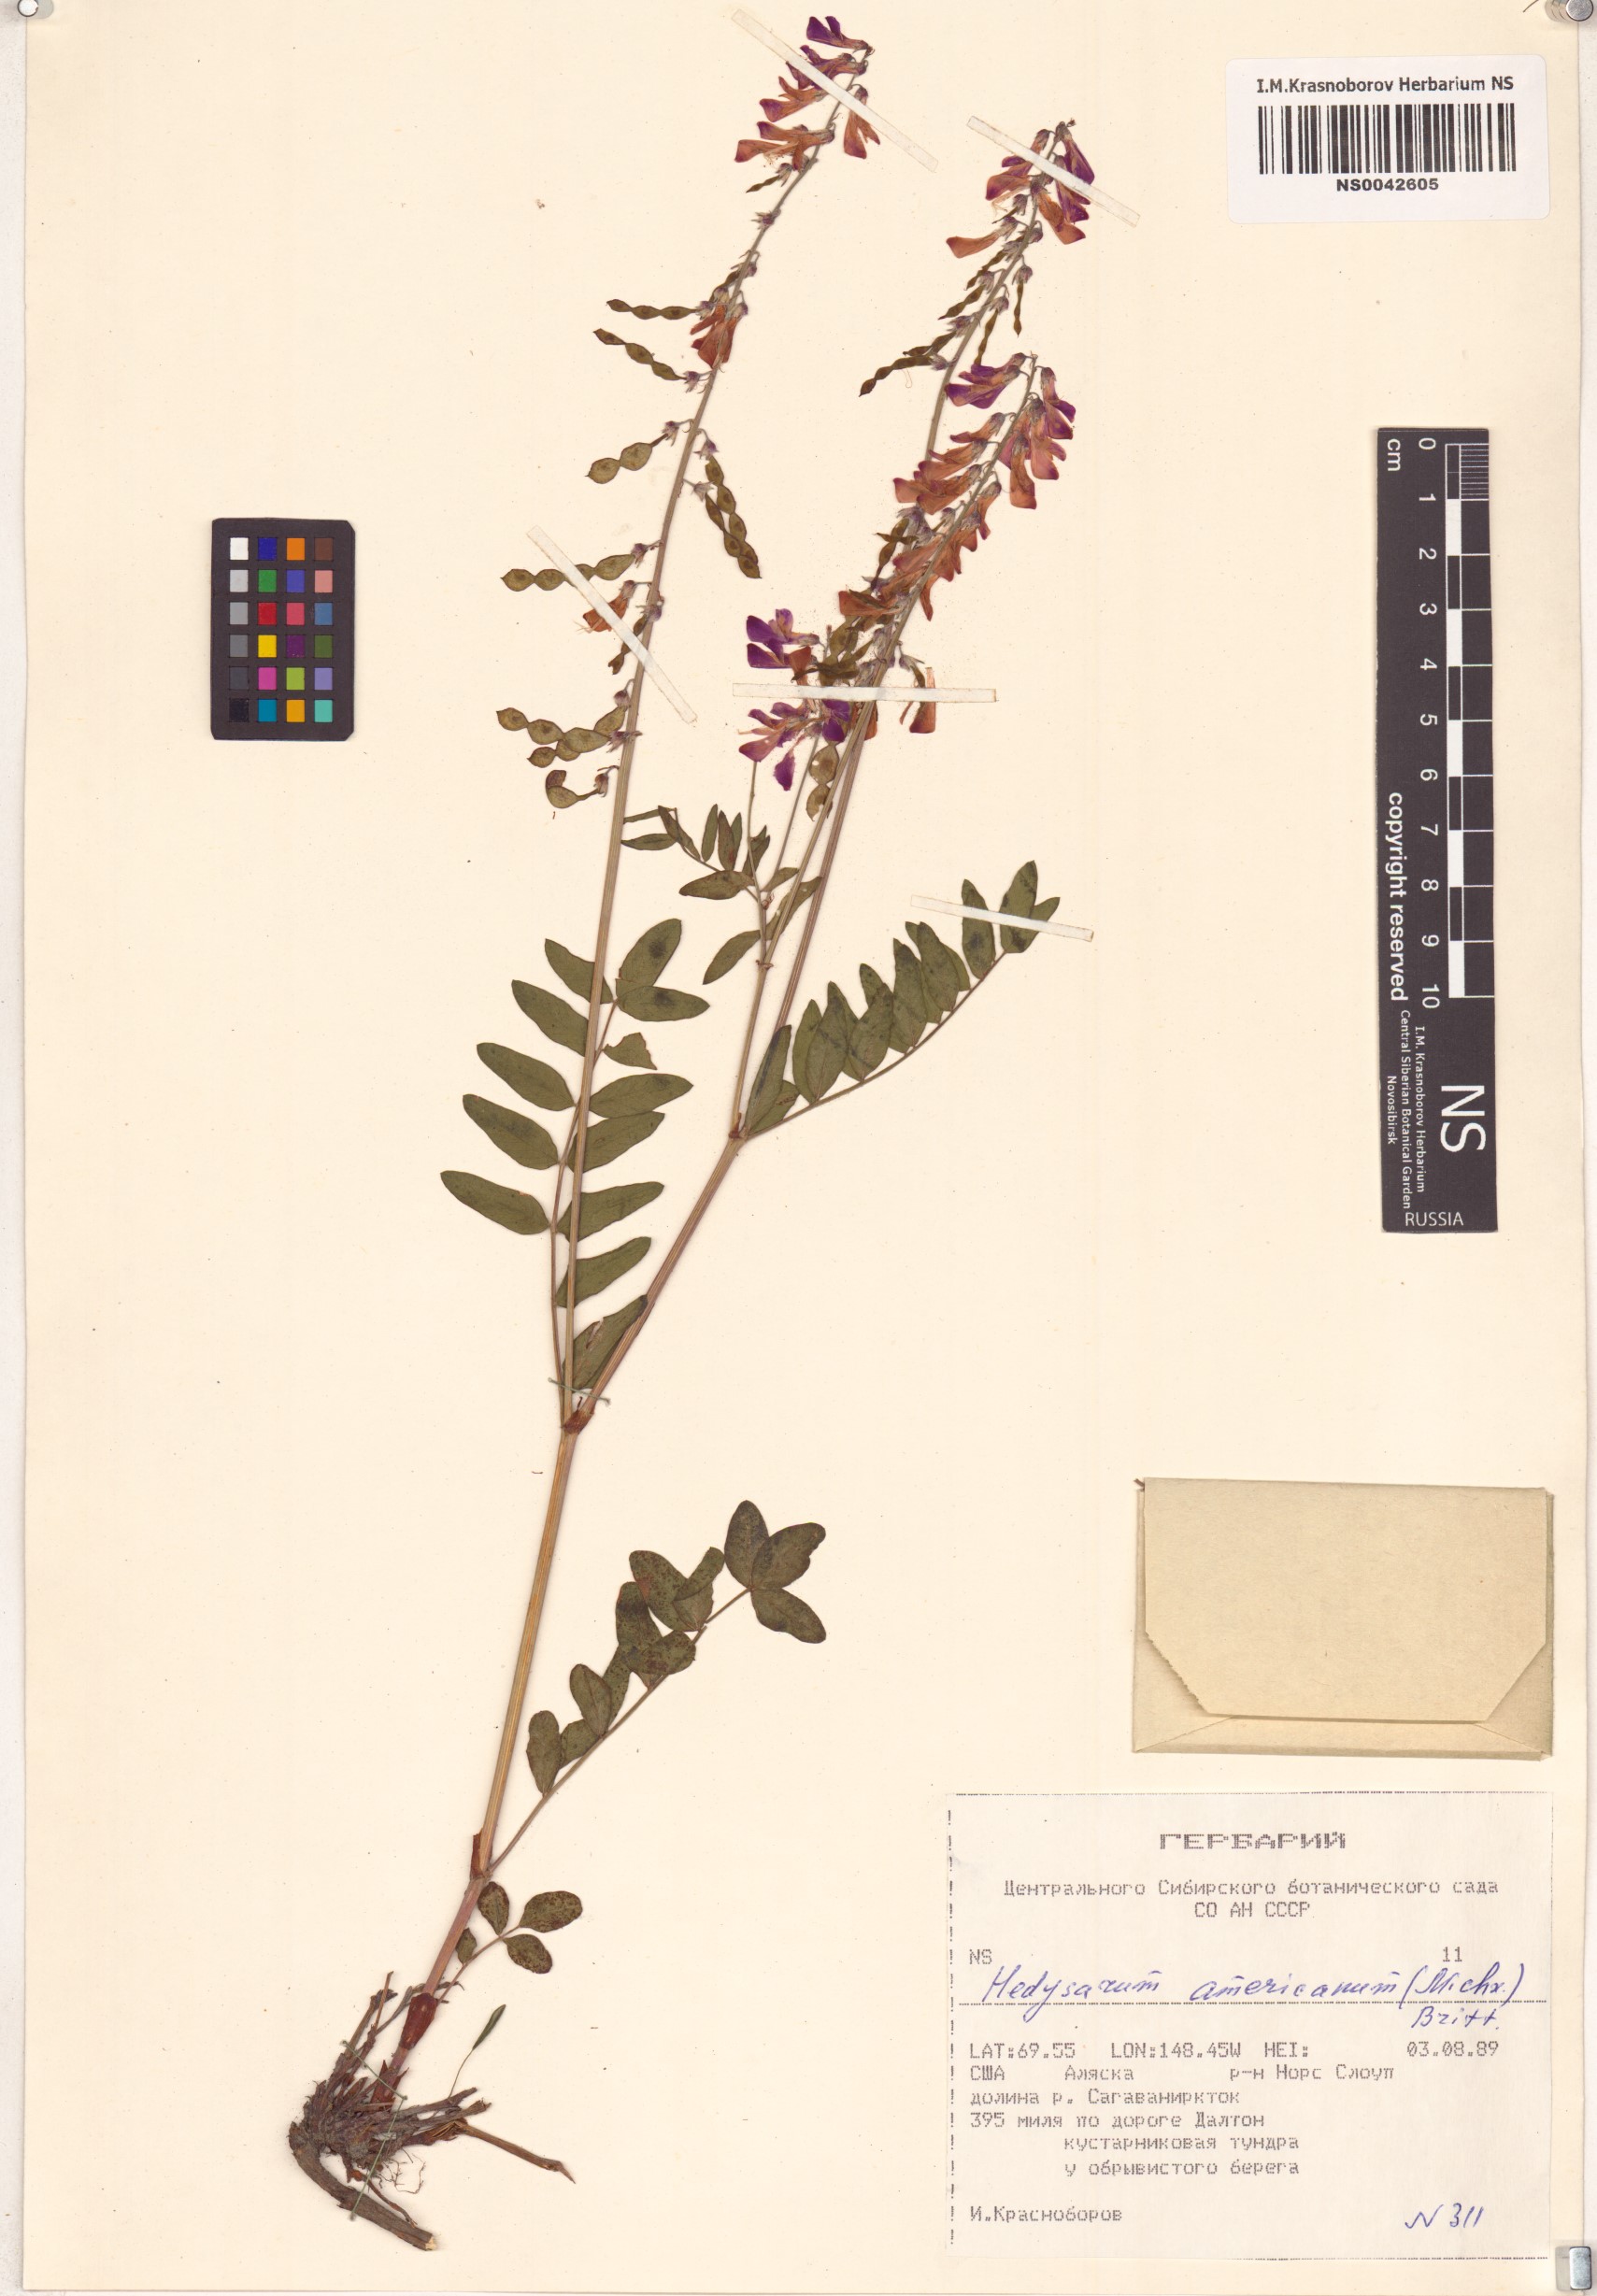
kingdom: Plantae
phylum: Tracheophyta
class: Magnoliopsida
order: Fabales
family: Fabaceae
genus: Hedysarum
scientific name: Hedysarum americanum
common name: Alpine hedysarum
